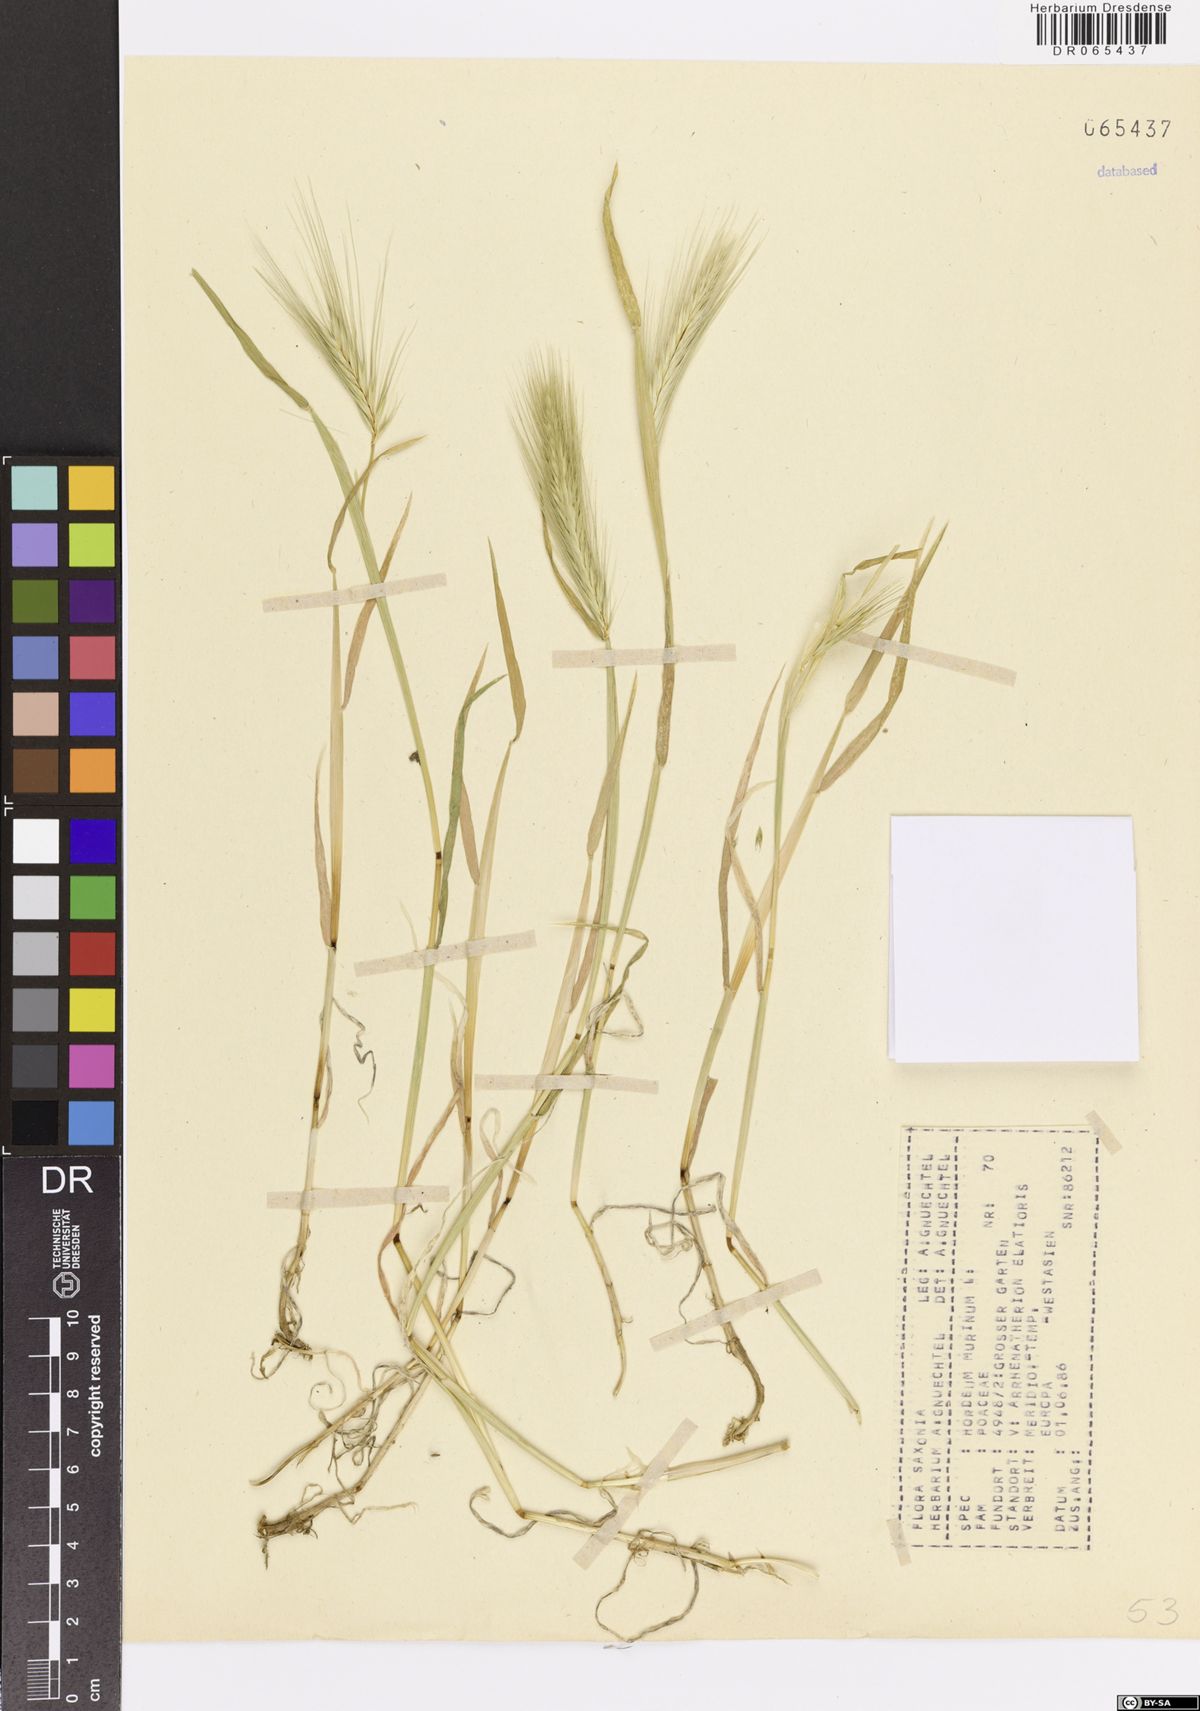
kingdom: Plantae
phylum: Tracheophyta
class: Liliopsida
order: Poales
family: Poaceae
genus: Hordeum
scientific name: Hordeum murinum
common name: Wall barley
